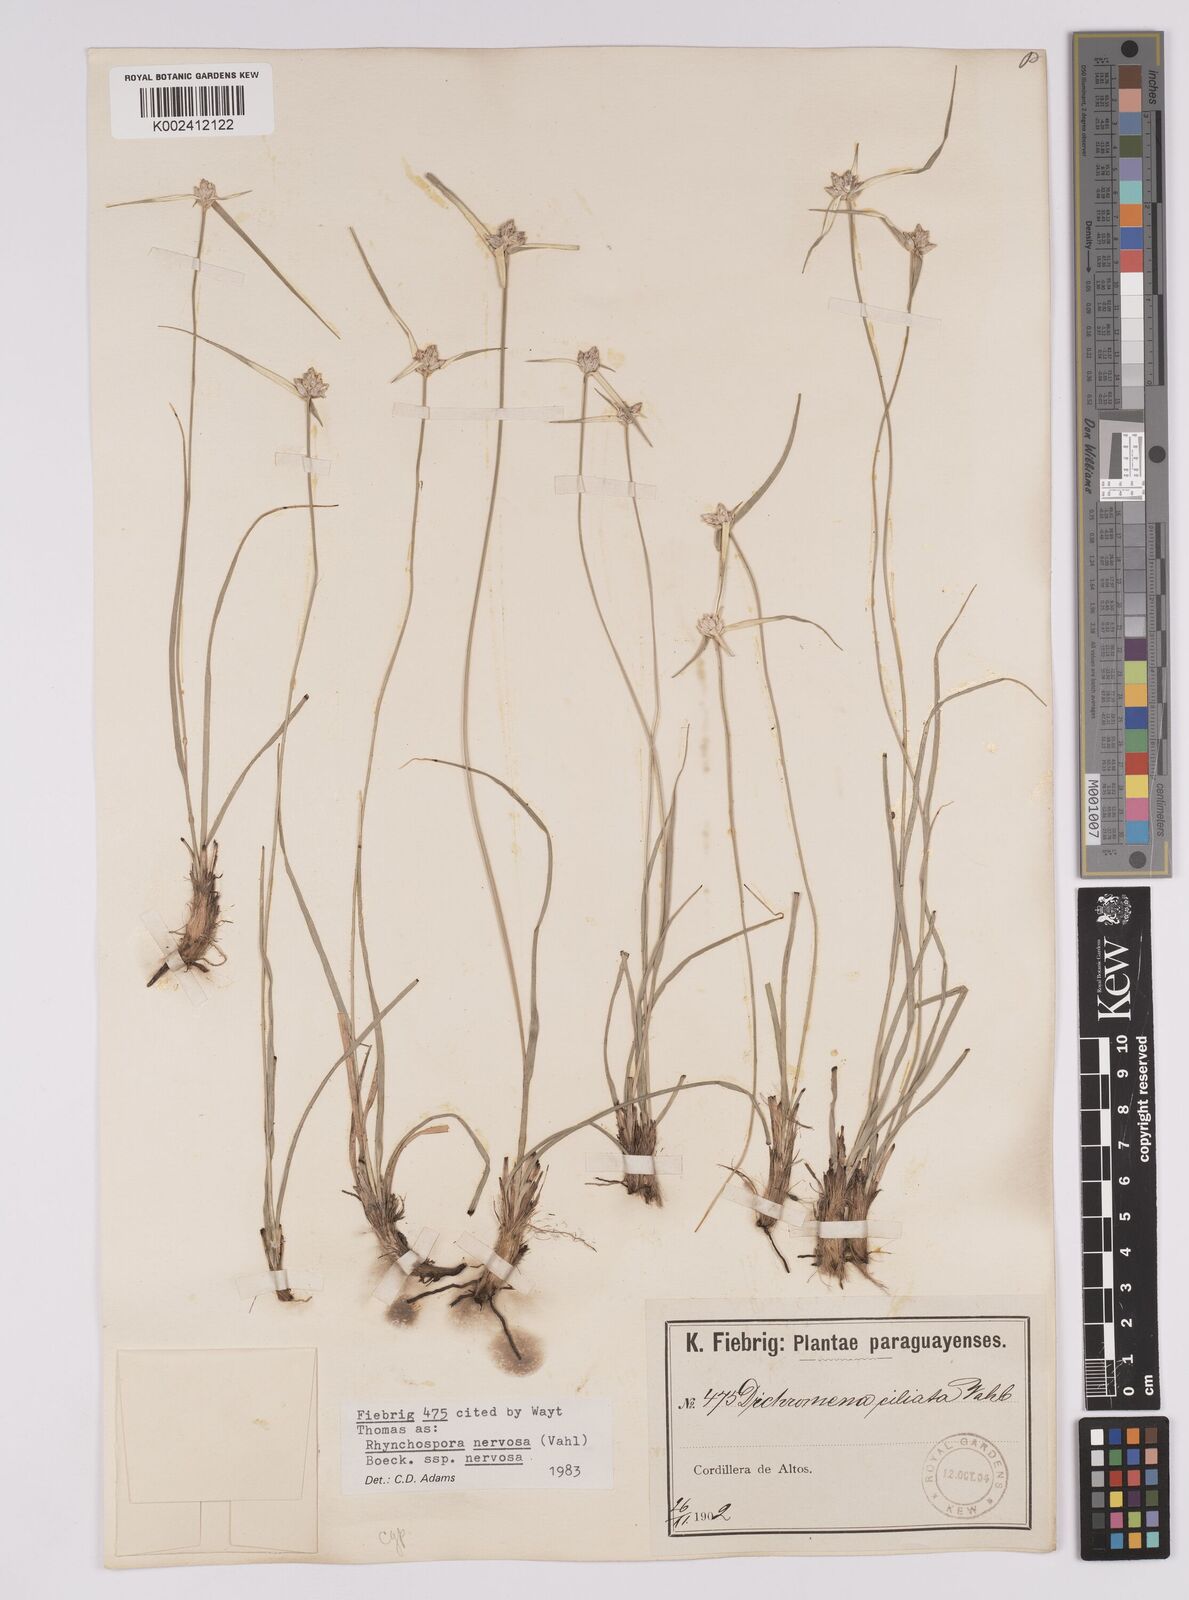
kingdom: Plantae
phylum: Tracheophyta
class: Liliopsida
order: Poales
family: Cyperaceae
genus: Rhynchospora
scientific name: Rhynchospora nervosa
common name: Star sedge
